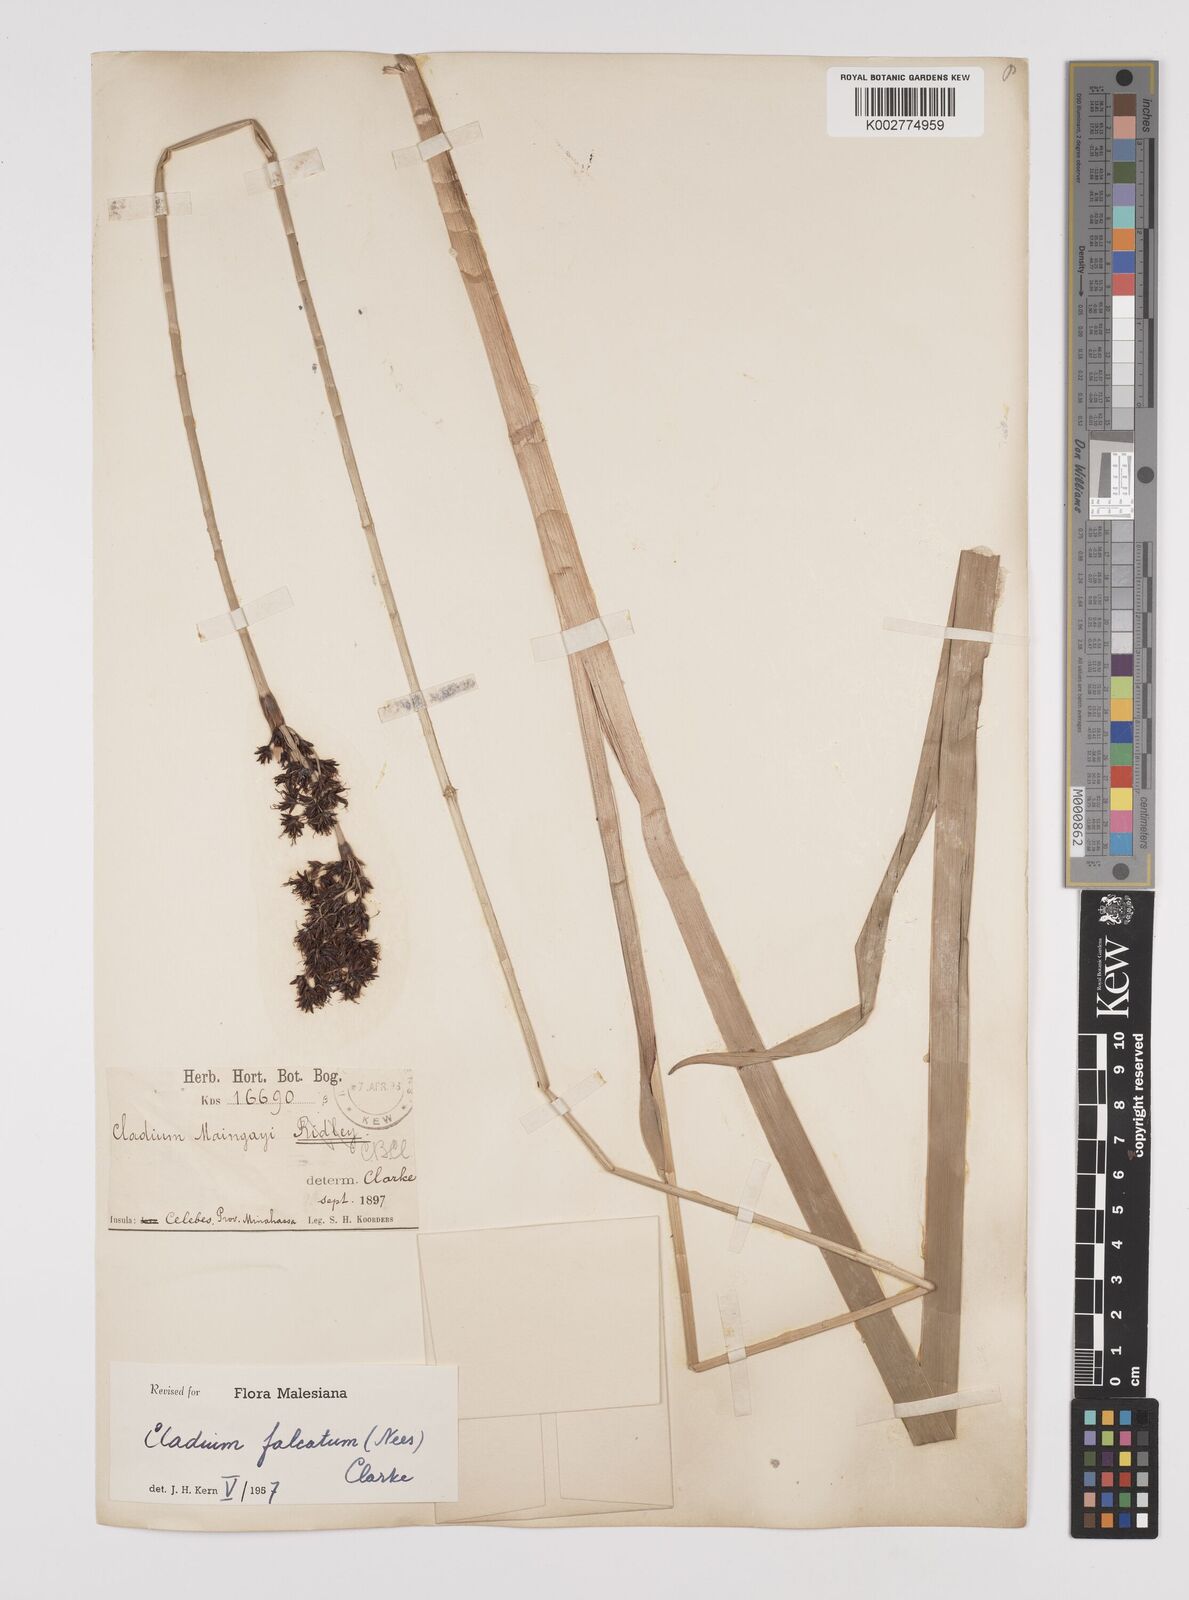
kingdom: Plantae
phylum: Tracheophyta
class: Liliopsida
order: Poales
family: Cyperaceae
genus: Machaerina
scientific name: Machaerina falcata
